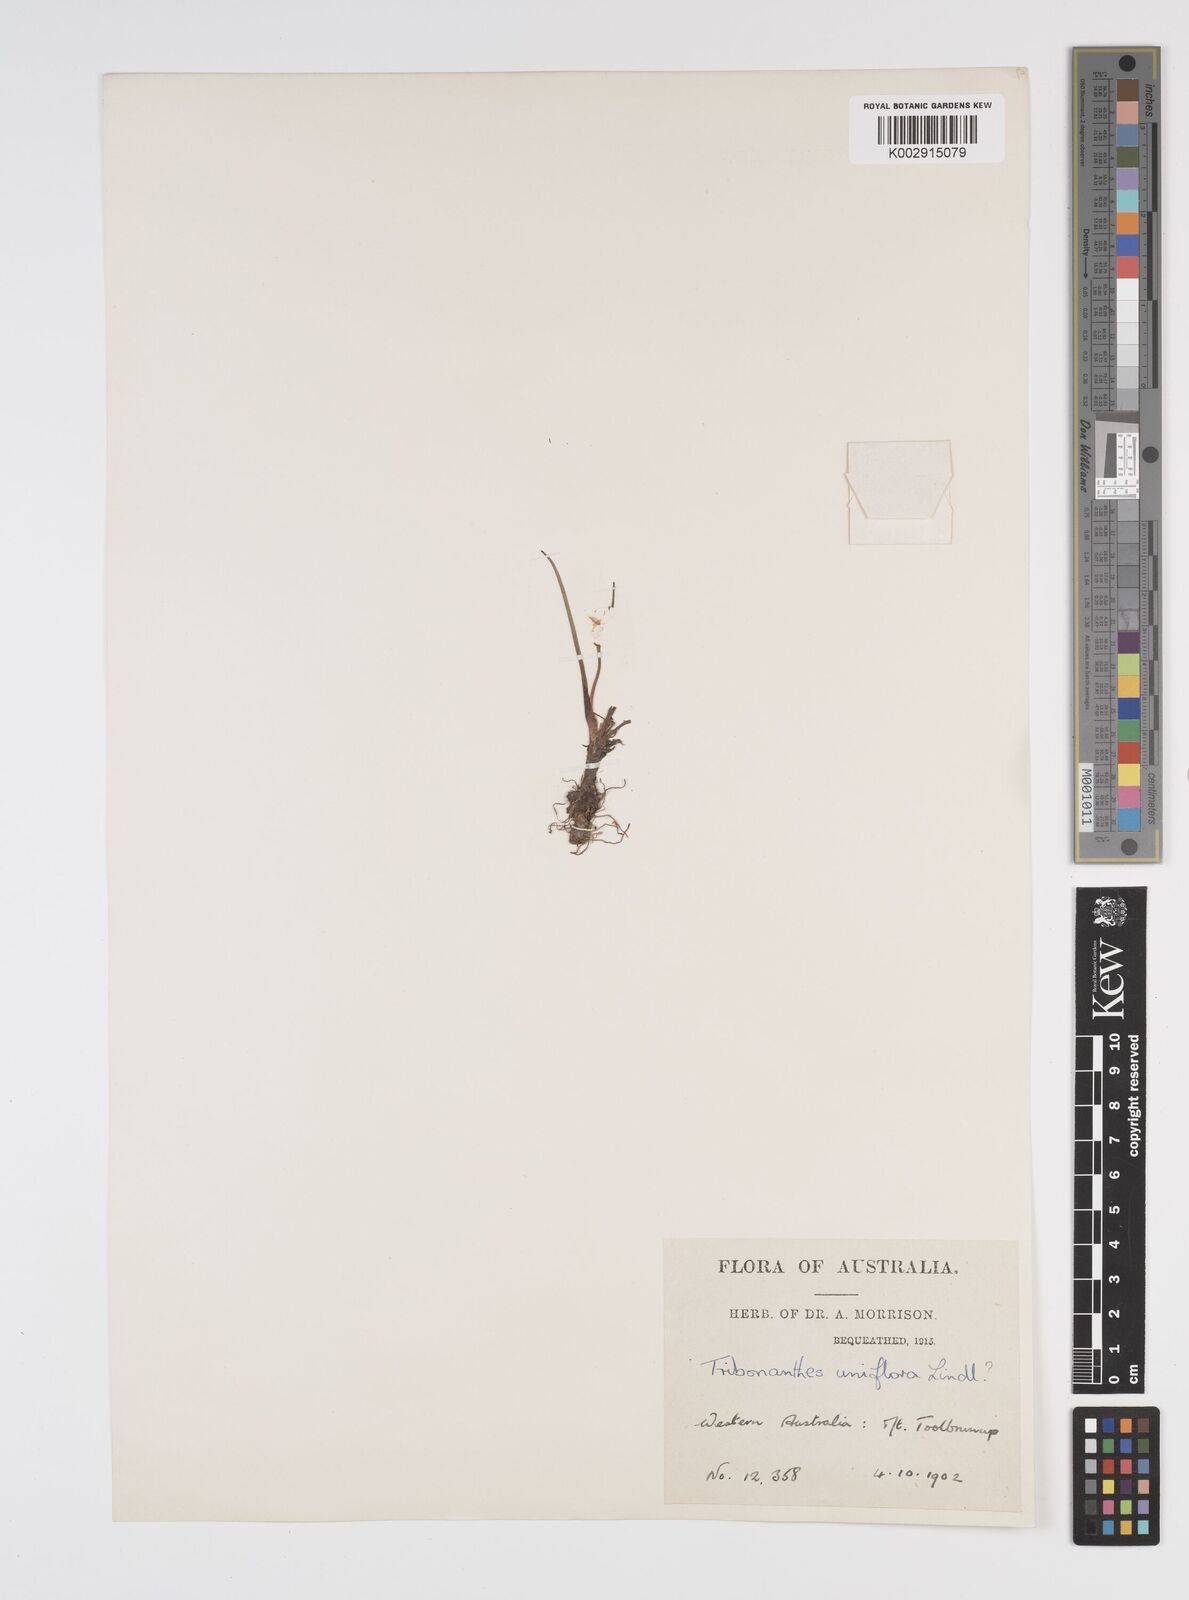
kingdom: Plantae
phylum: Tracheophyta
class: Liliopsida
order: Commelinales
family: Haemodoraceae
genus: Tribonanthes
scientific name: Tribonanthes uniflora
